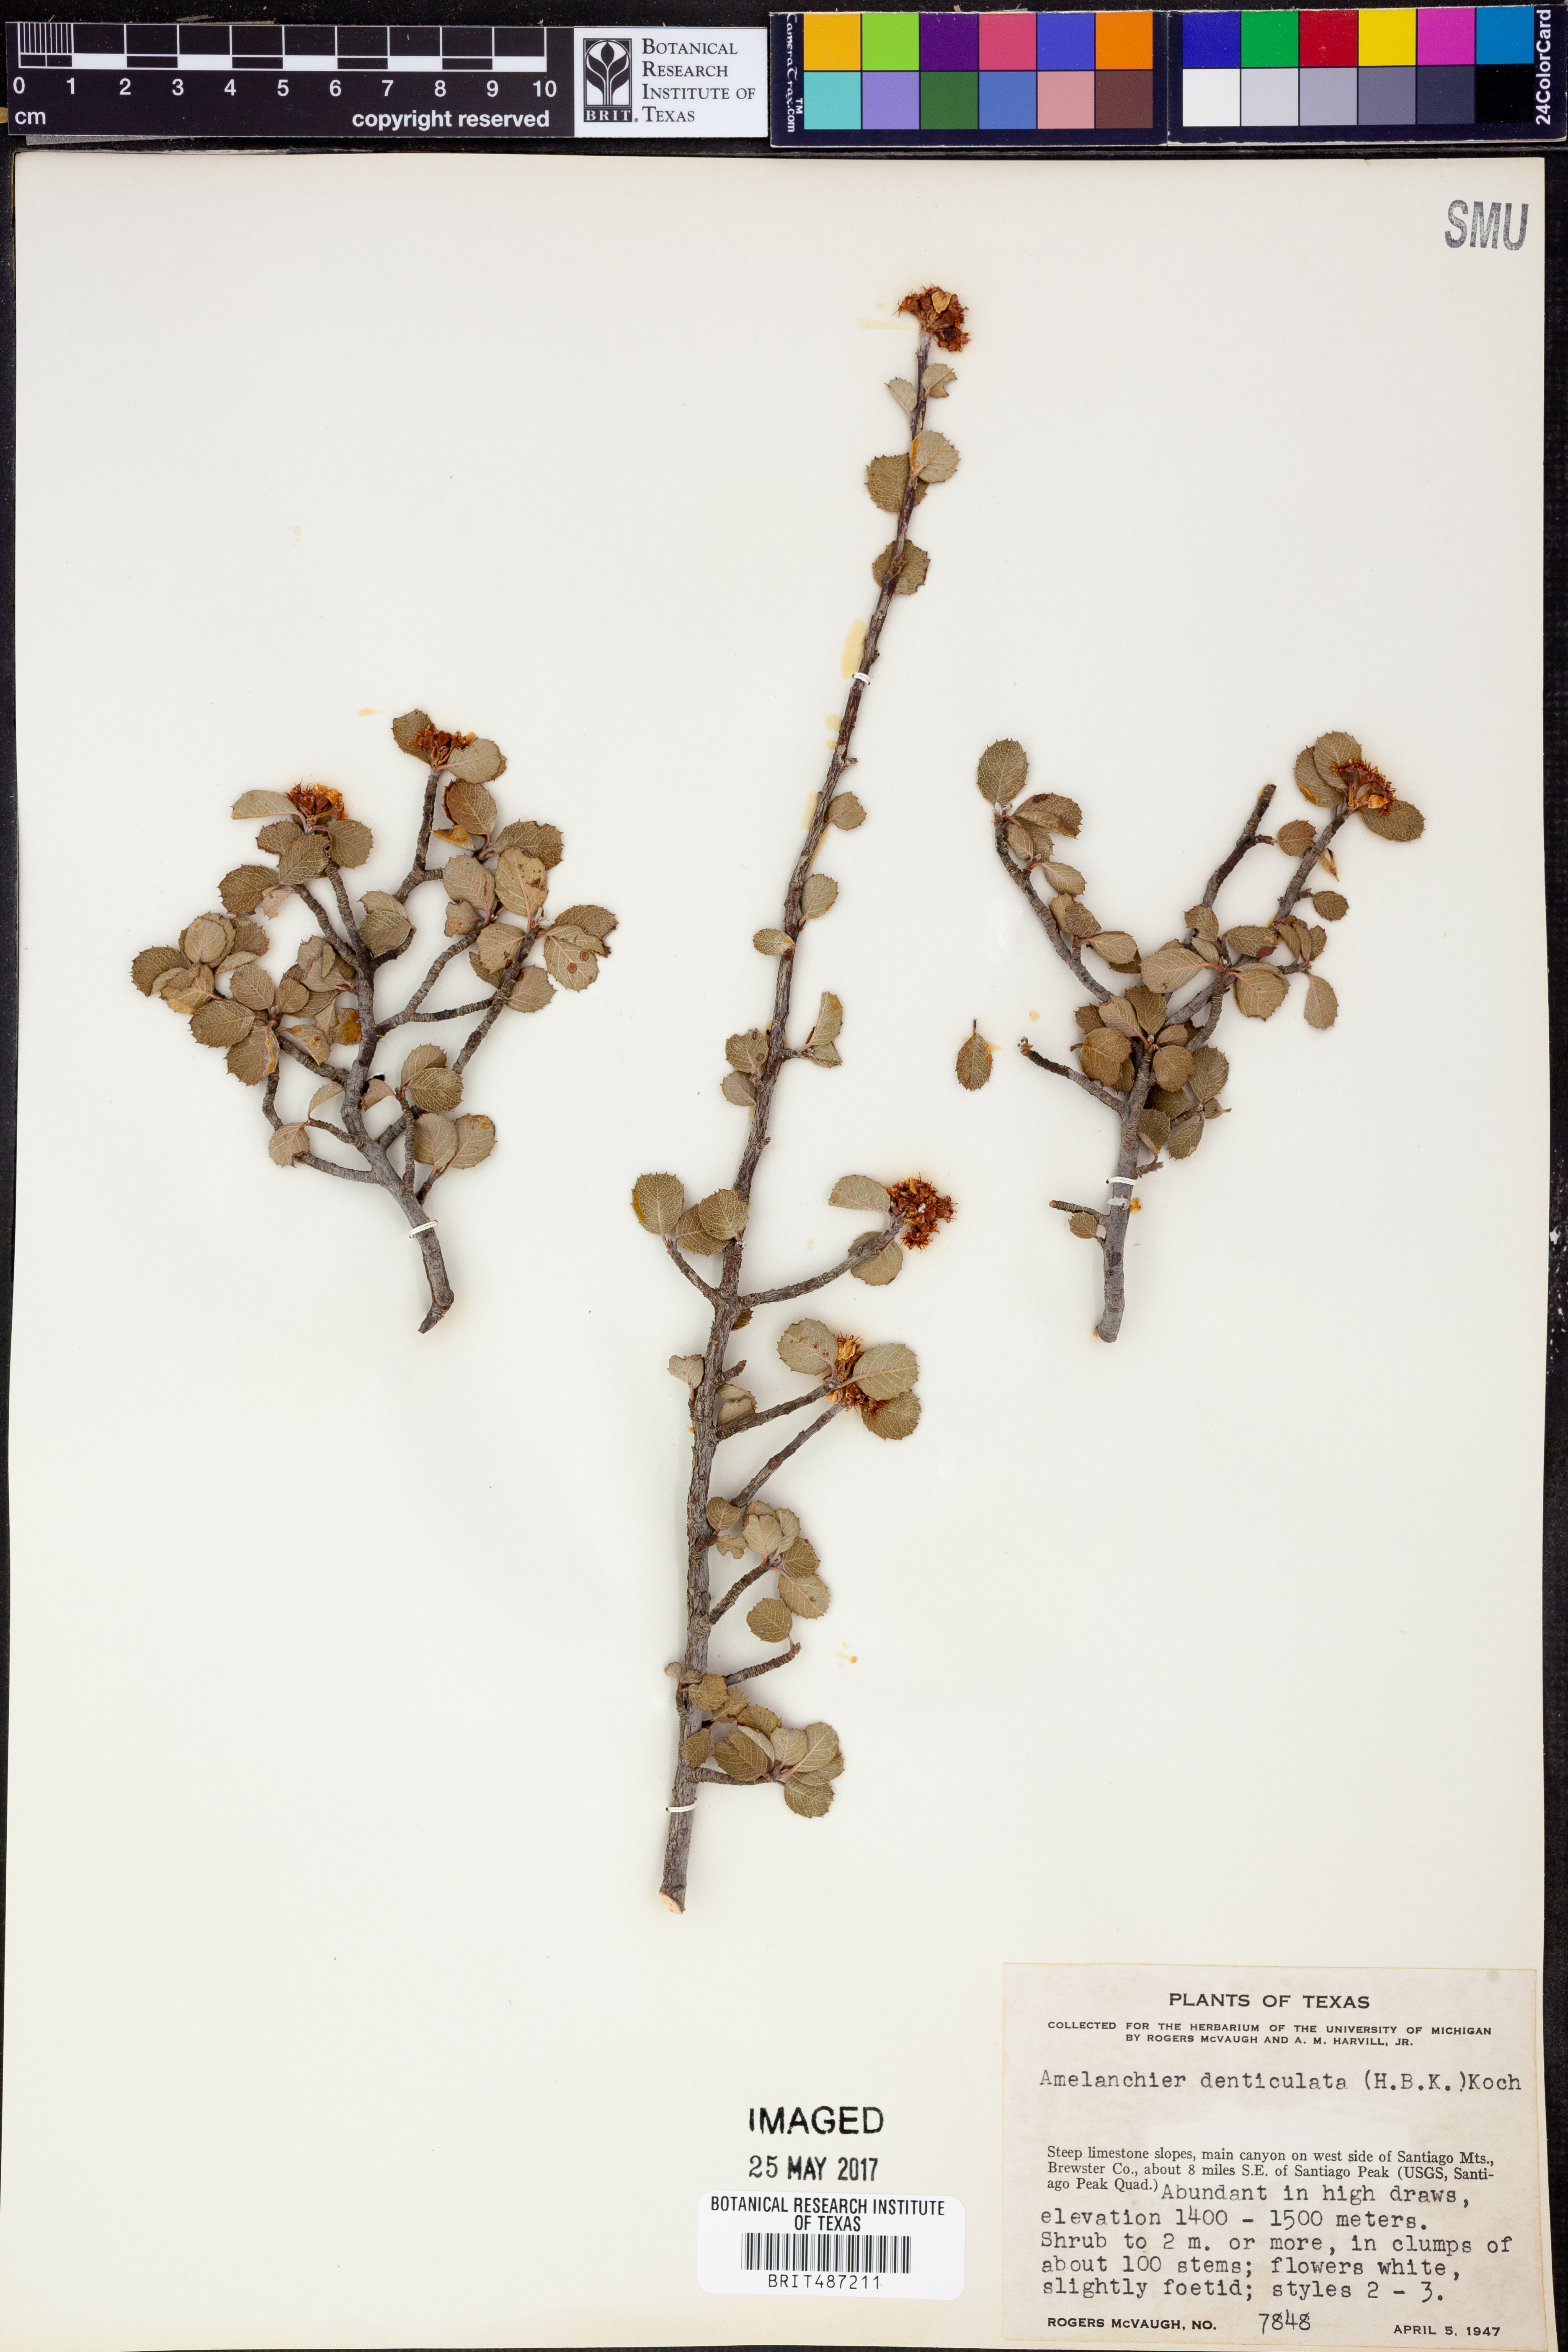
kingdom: Plantae
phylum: Tracheophyta
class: Magnoliopsida
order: Rosales
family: Rosaceae
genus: Malacomeles
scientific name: Malacomeles denticulata
